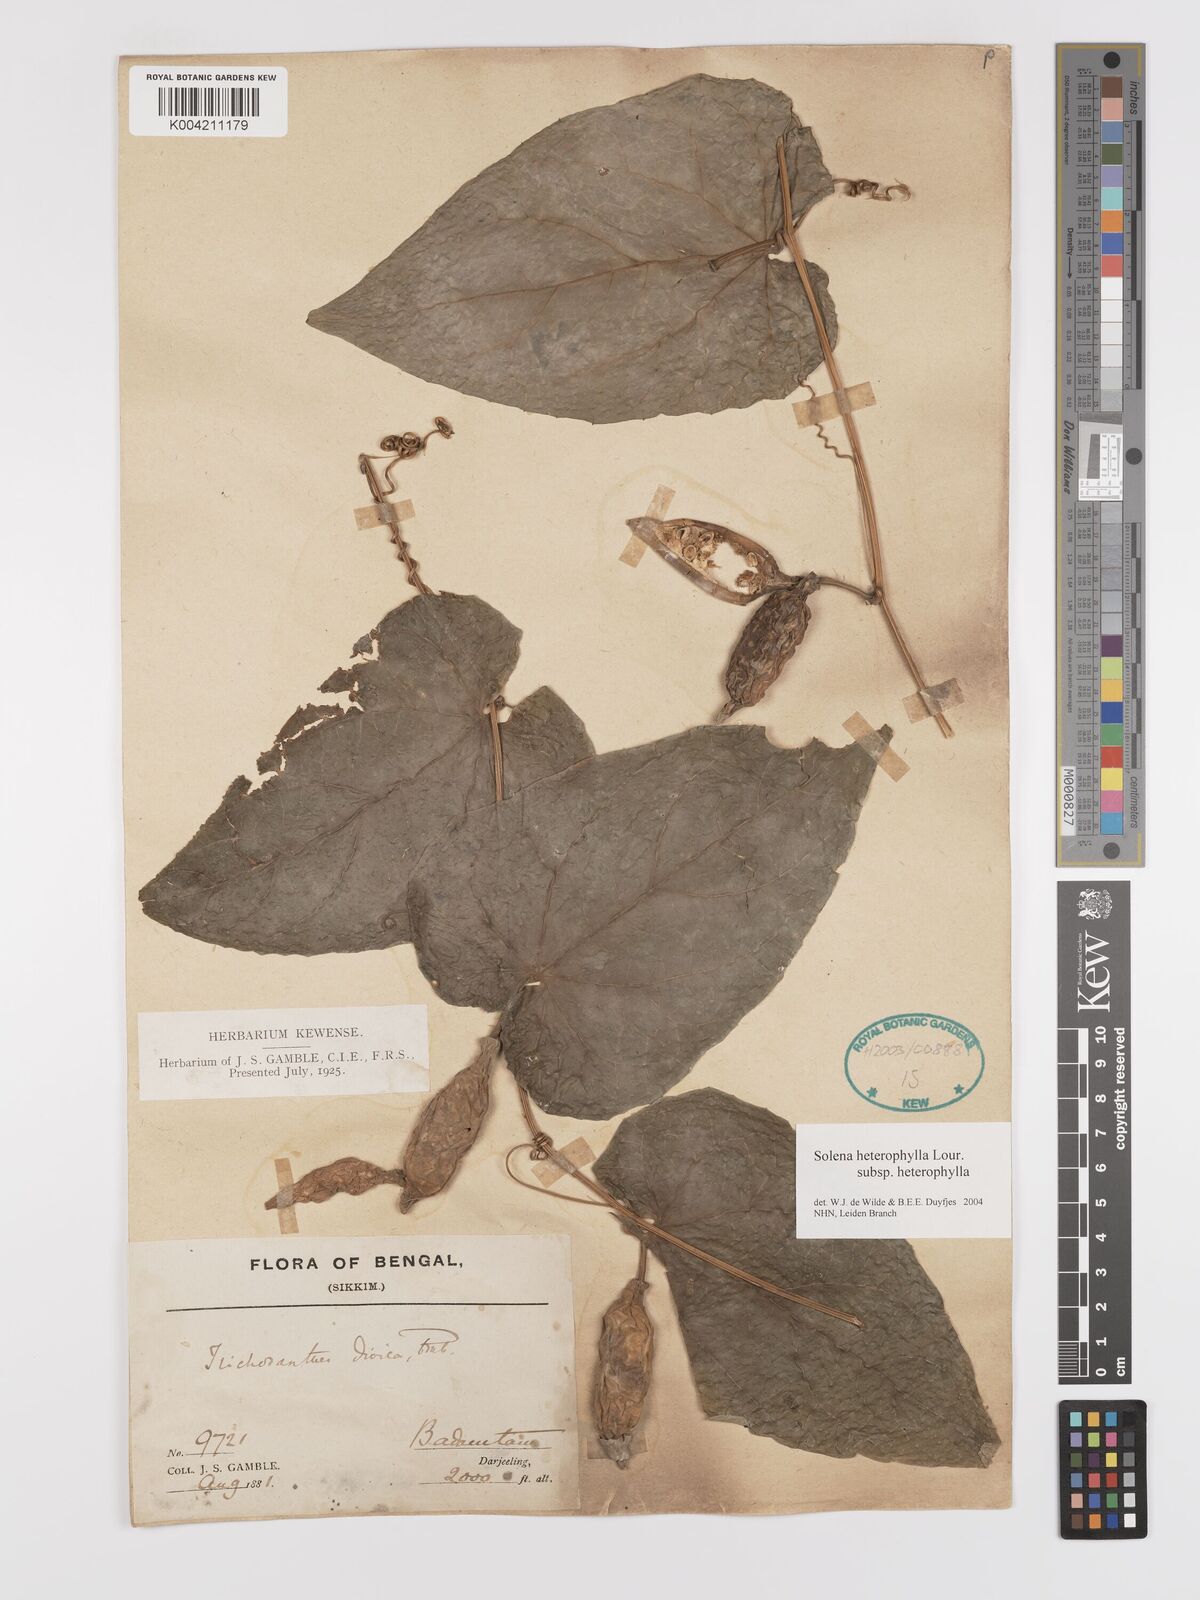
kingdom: Plantae
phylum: Tracheophyta
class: Magnoliopsida
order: Cucurbitales
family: Cucurbitaceae
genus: Solena
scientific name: Solena amplexicaulis
